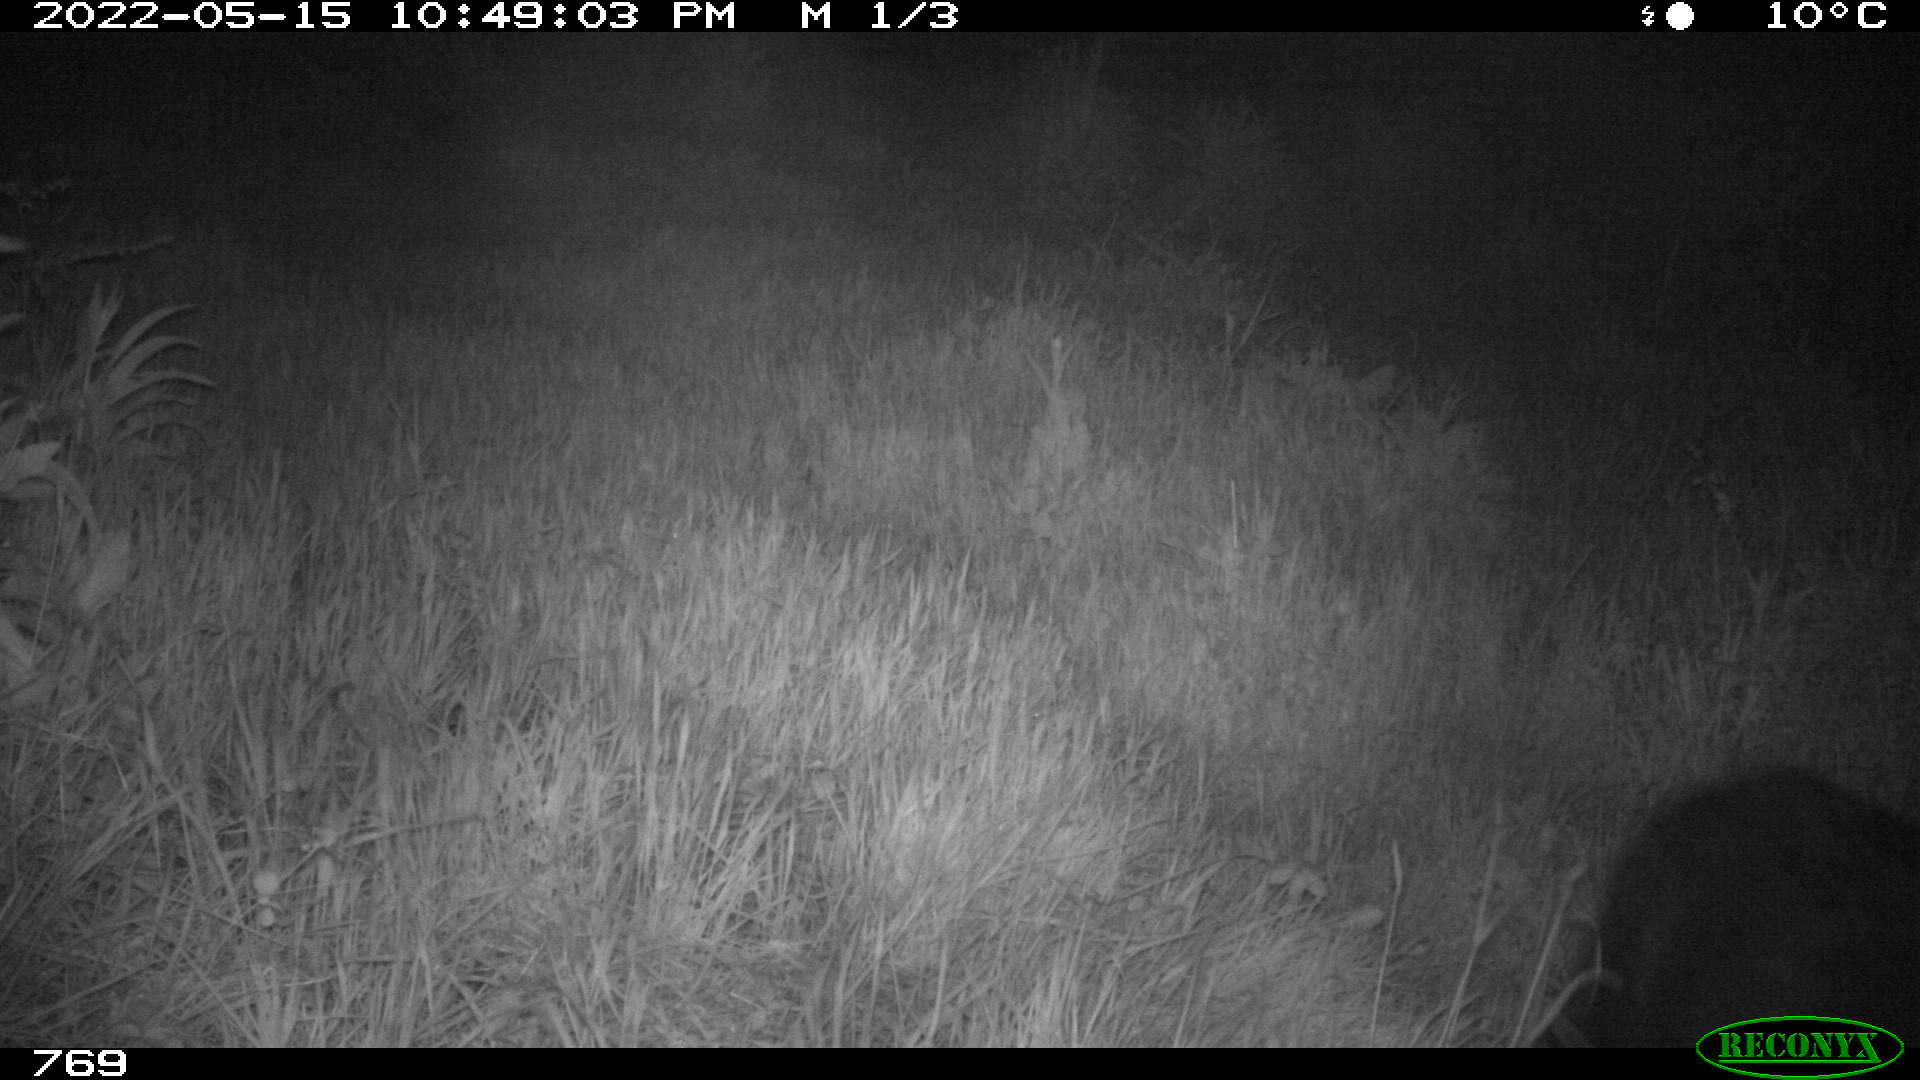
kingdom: Animalia
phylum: Chordata
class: Mammalia
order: Artiodactyla
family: Suidae
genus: Sus
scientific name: Sus scrofa
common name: Wild boar
